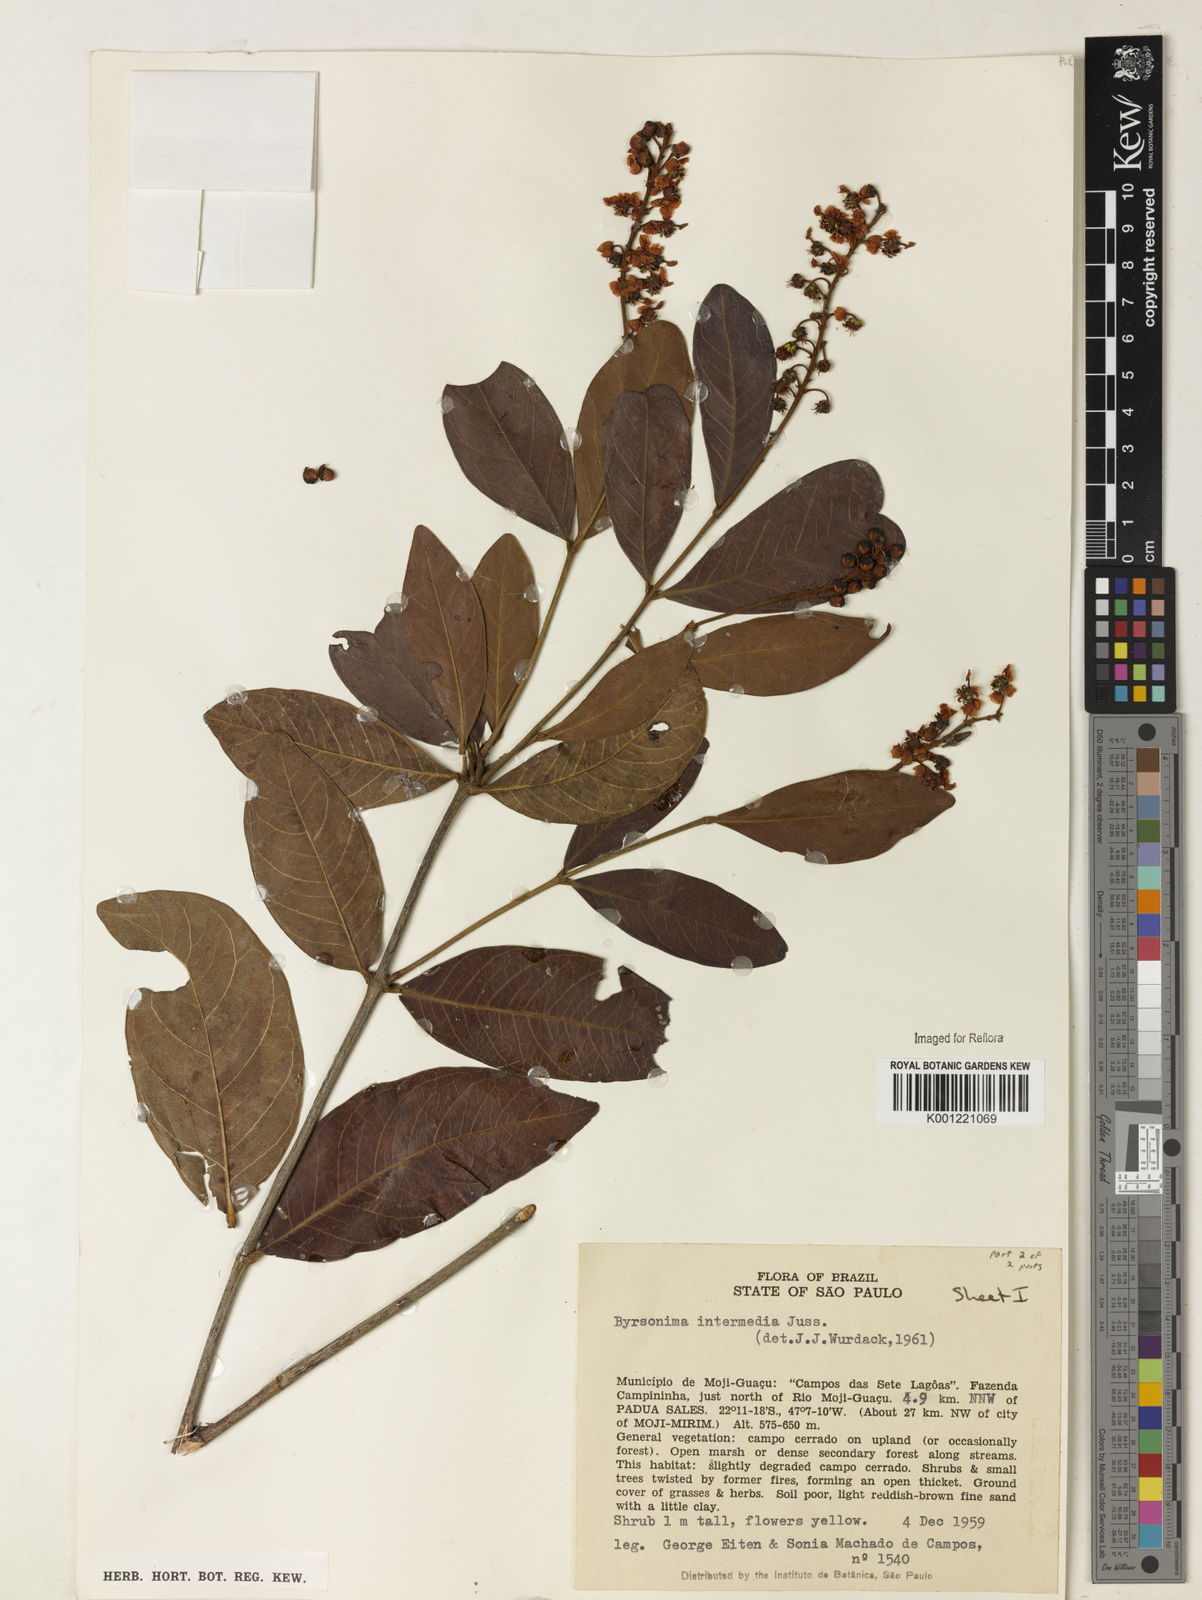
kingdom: Plantae
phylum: Tracheophyta
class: Magnoliopsida
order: Malpighiales
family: Malpighiaceae
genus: Byrsonima
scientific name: Byrsonima intermedia
